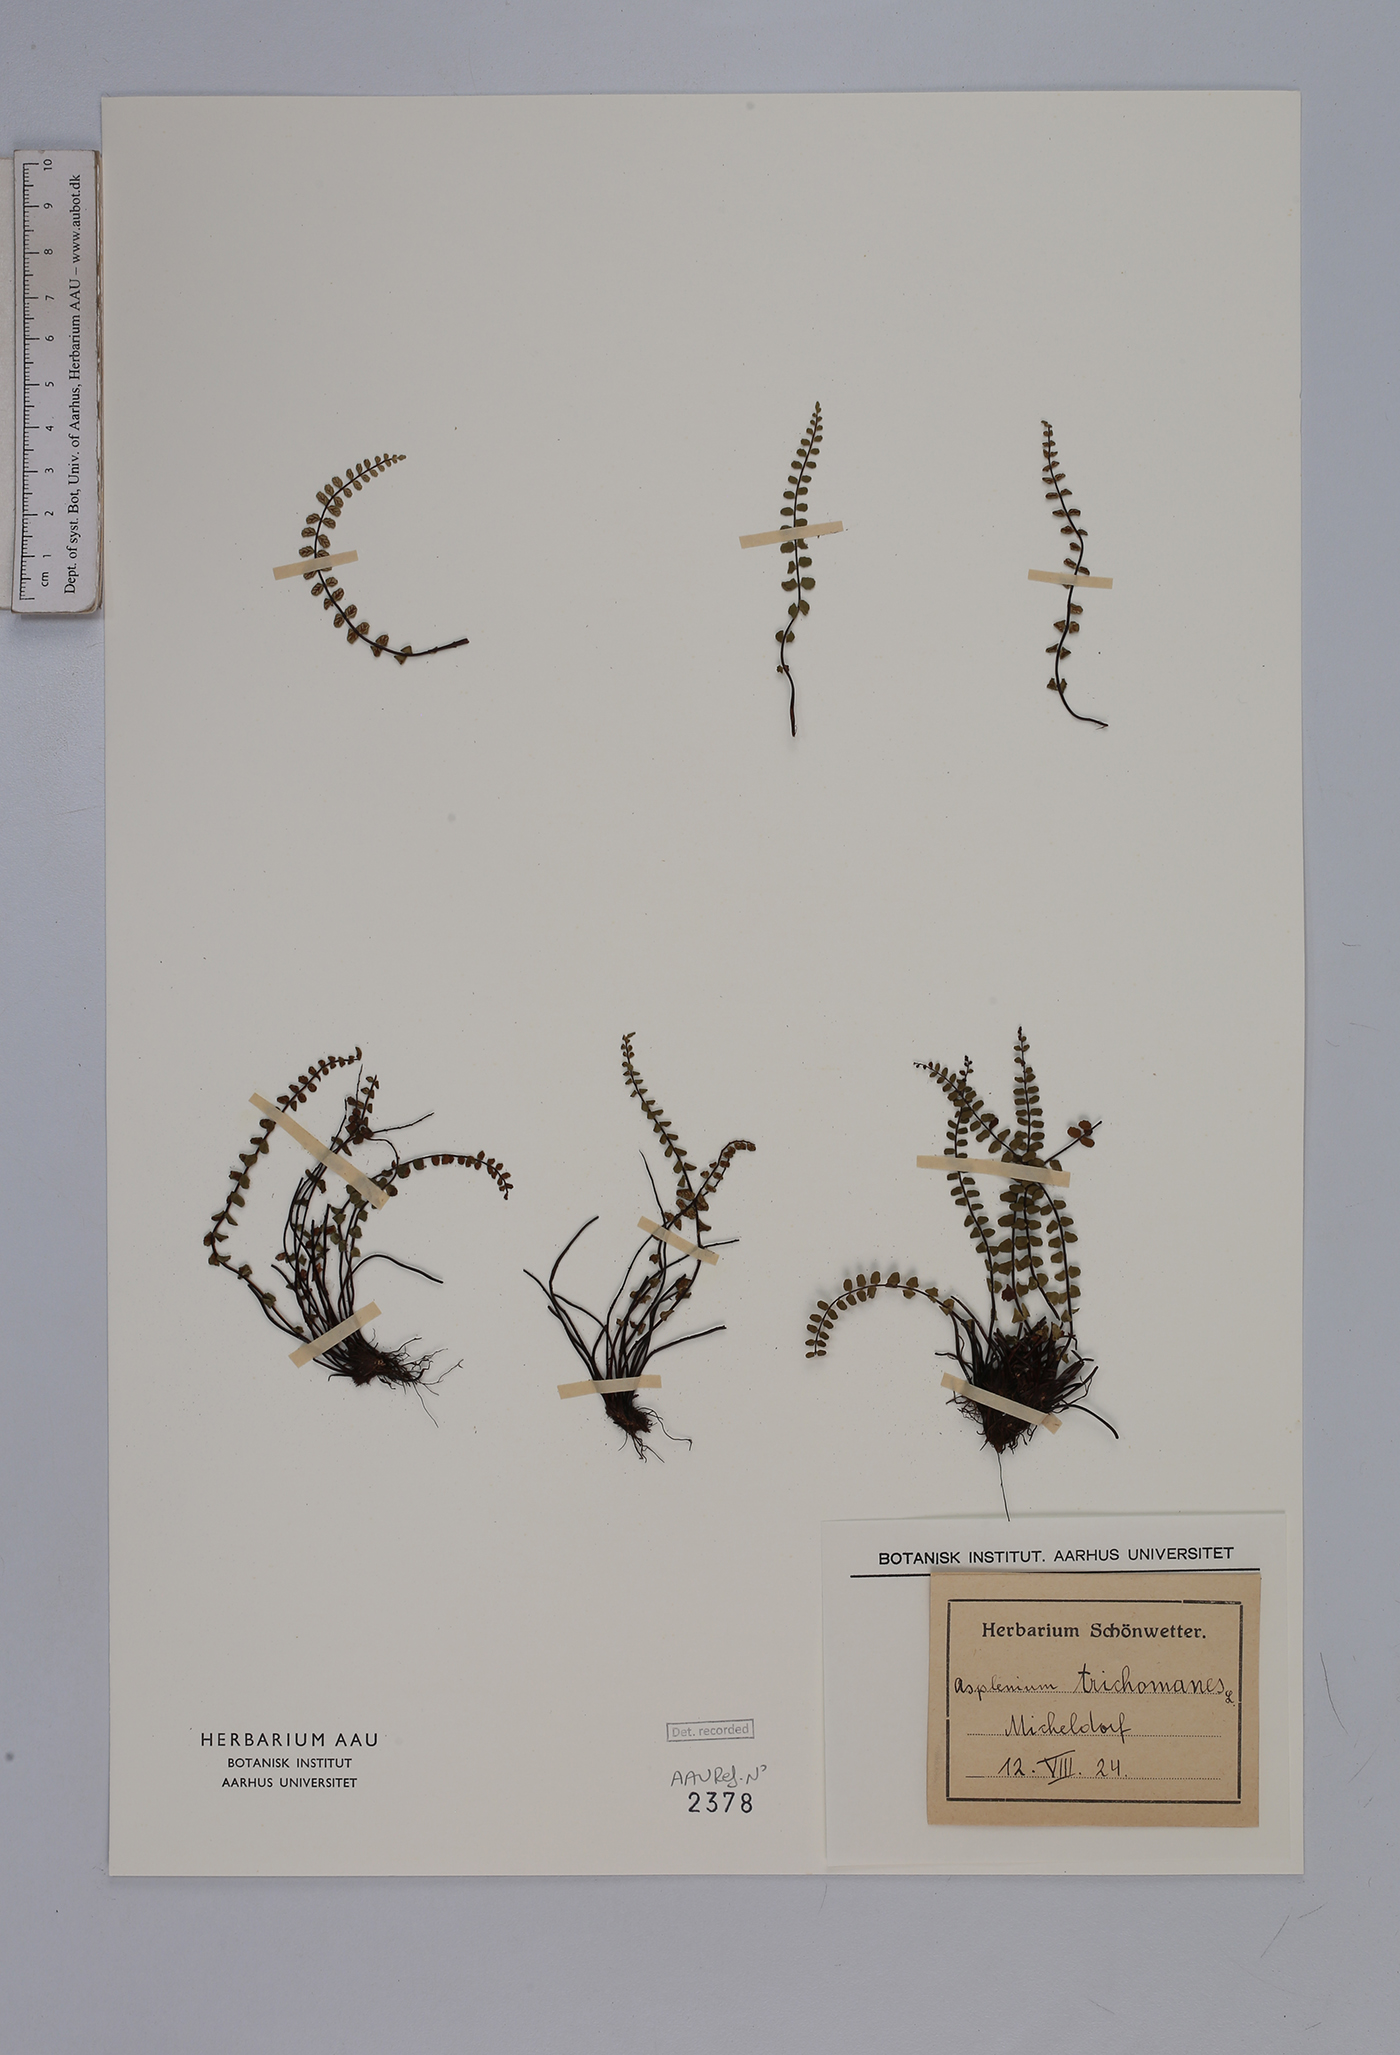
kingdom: Plantae
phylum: Tracheophyta
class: Polypodiopsida
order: Polypodiales
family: Aspleniaceae
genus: Asplenium
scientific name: Asplenium trichomanes
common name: Maidenhair spleenwort
